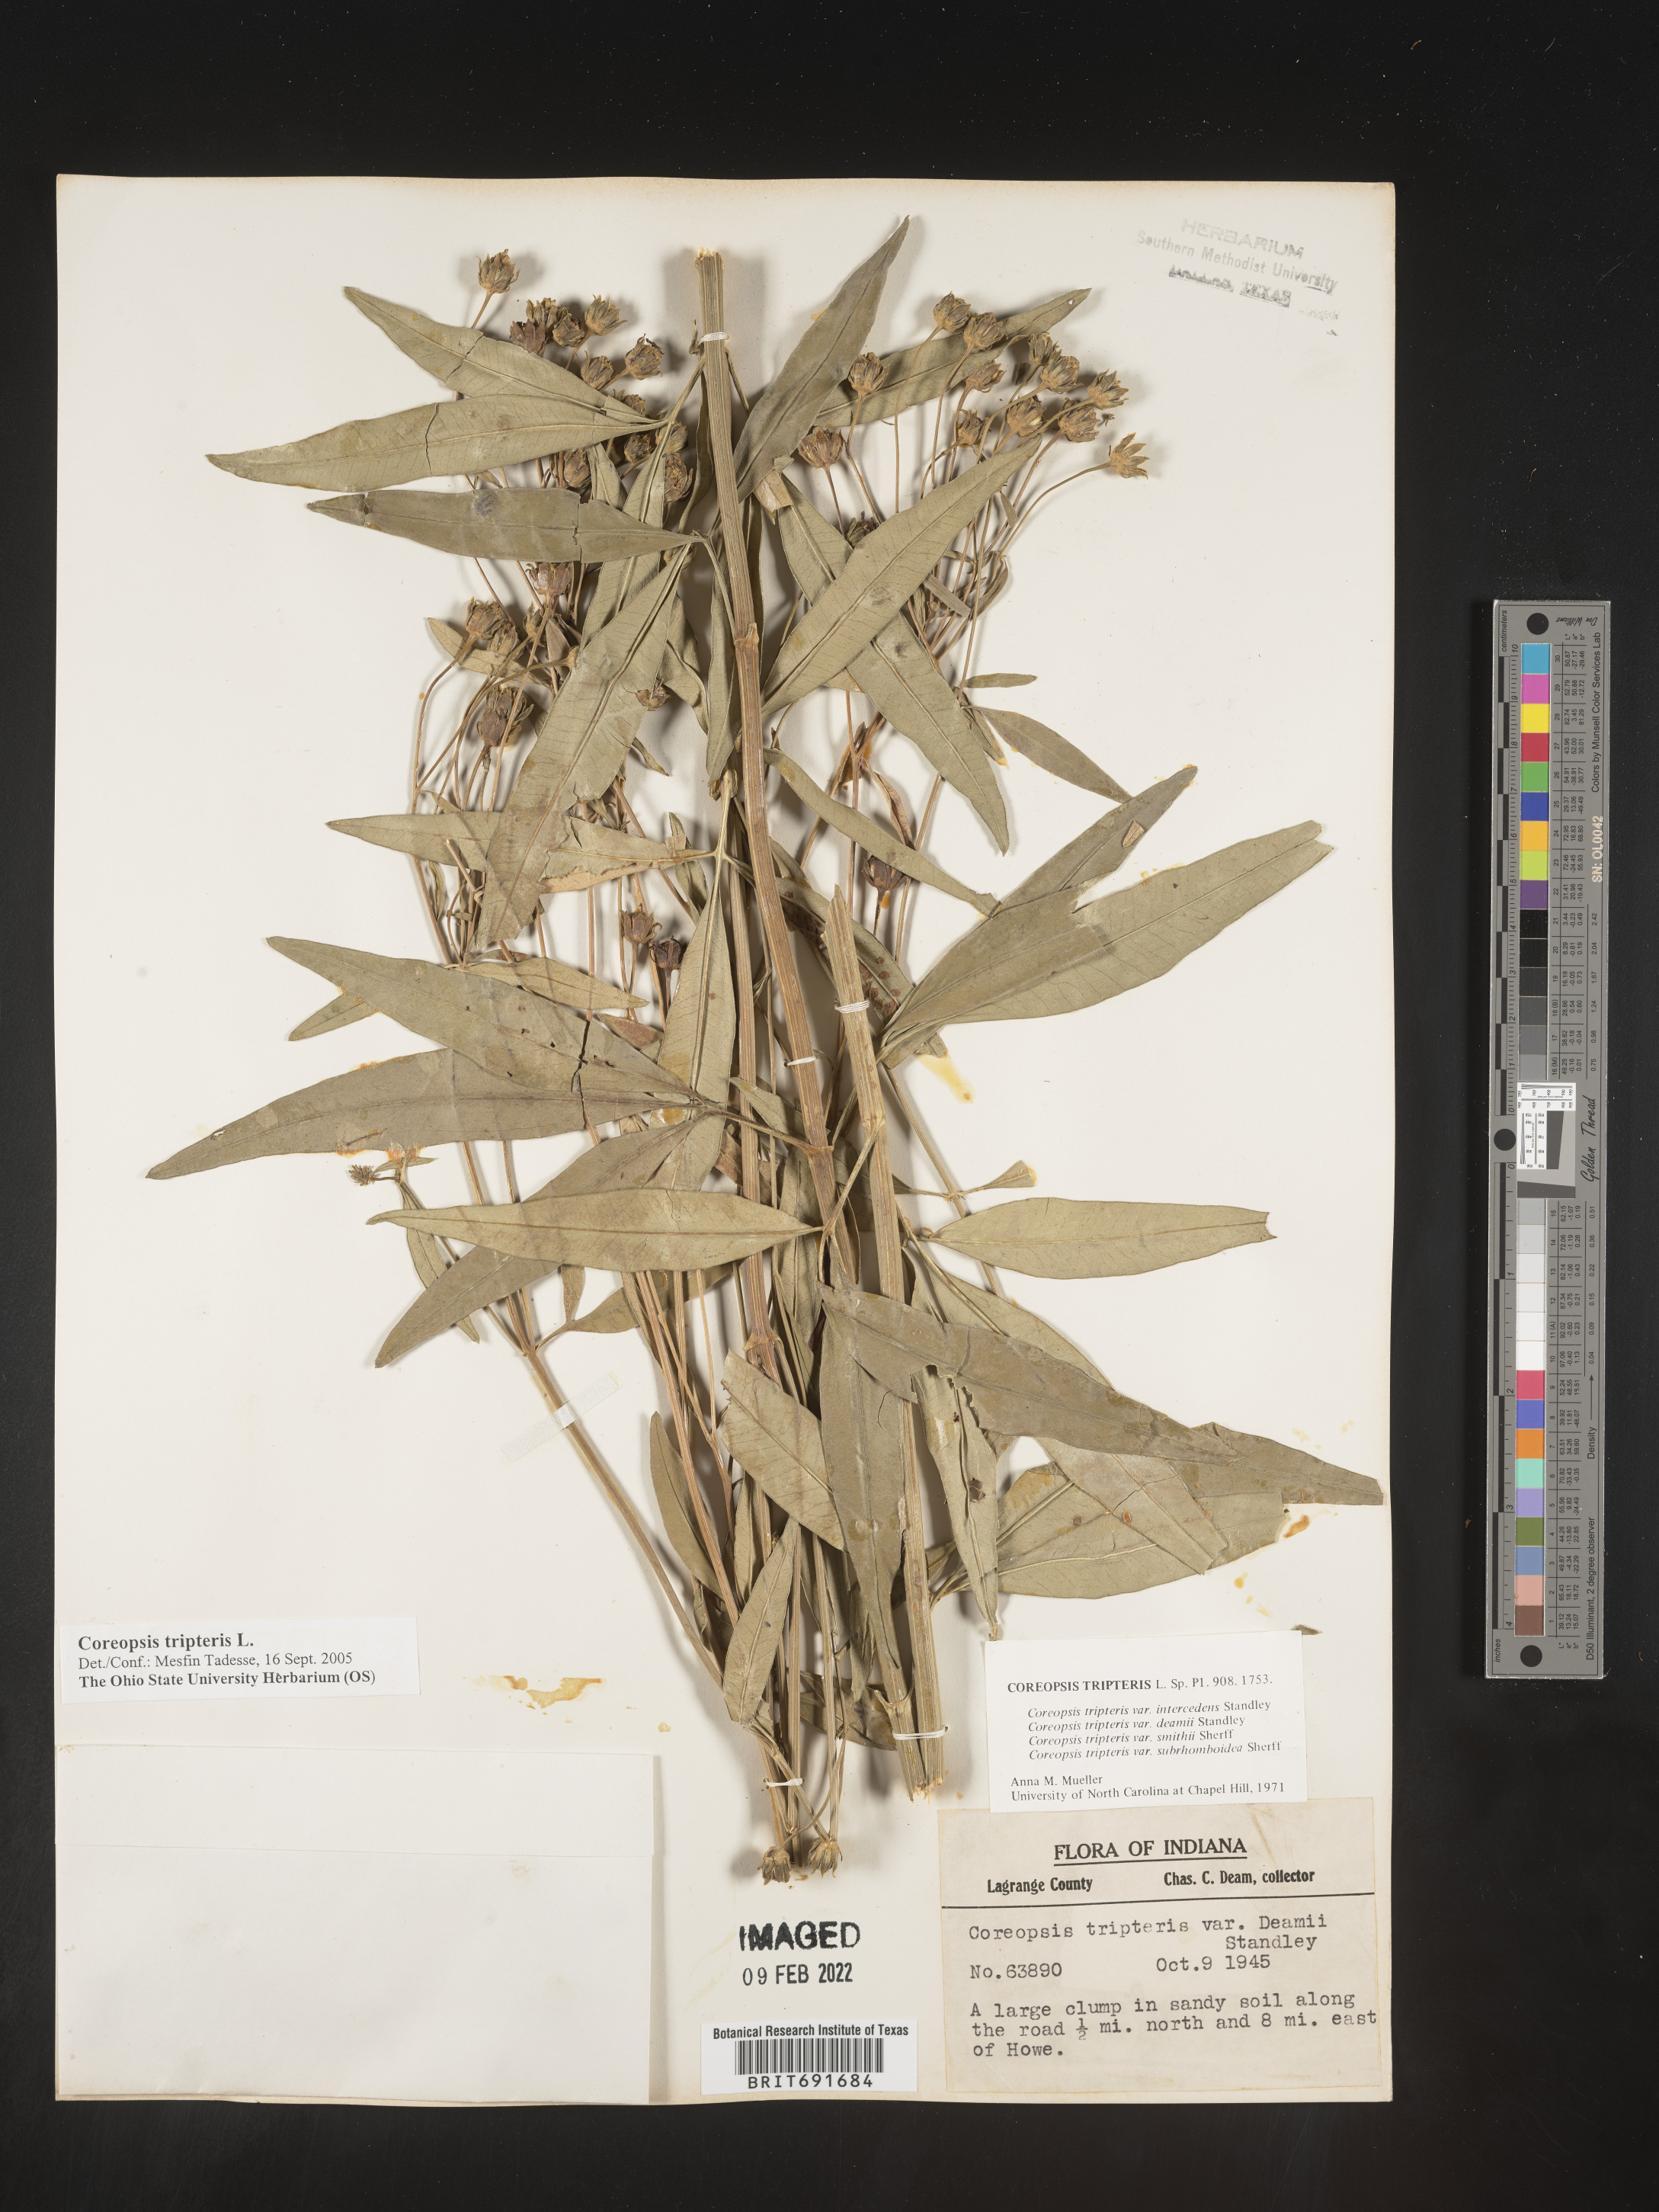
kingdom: Plantae
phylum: Tracheophyta
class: Magnoliopsida
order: Asterales
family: Asteraceae
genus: Coreopsis
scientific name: Coreopsis tripteris
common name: Tall coreopsis
